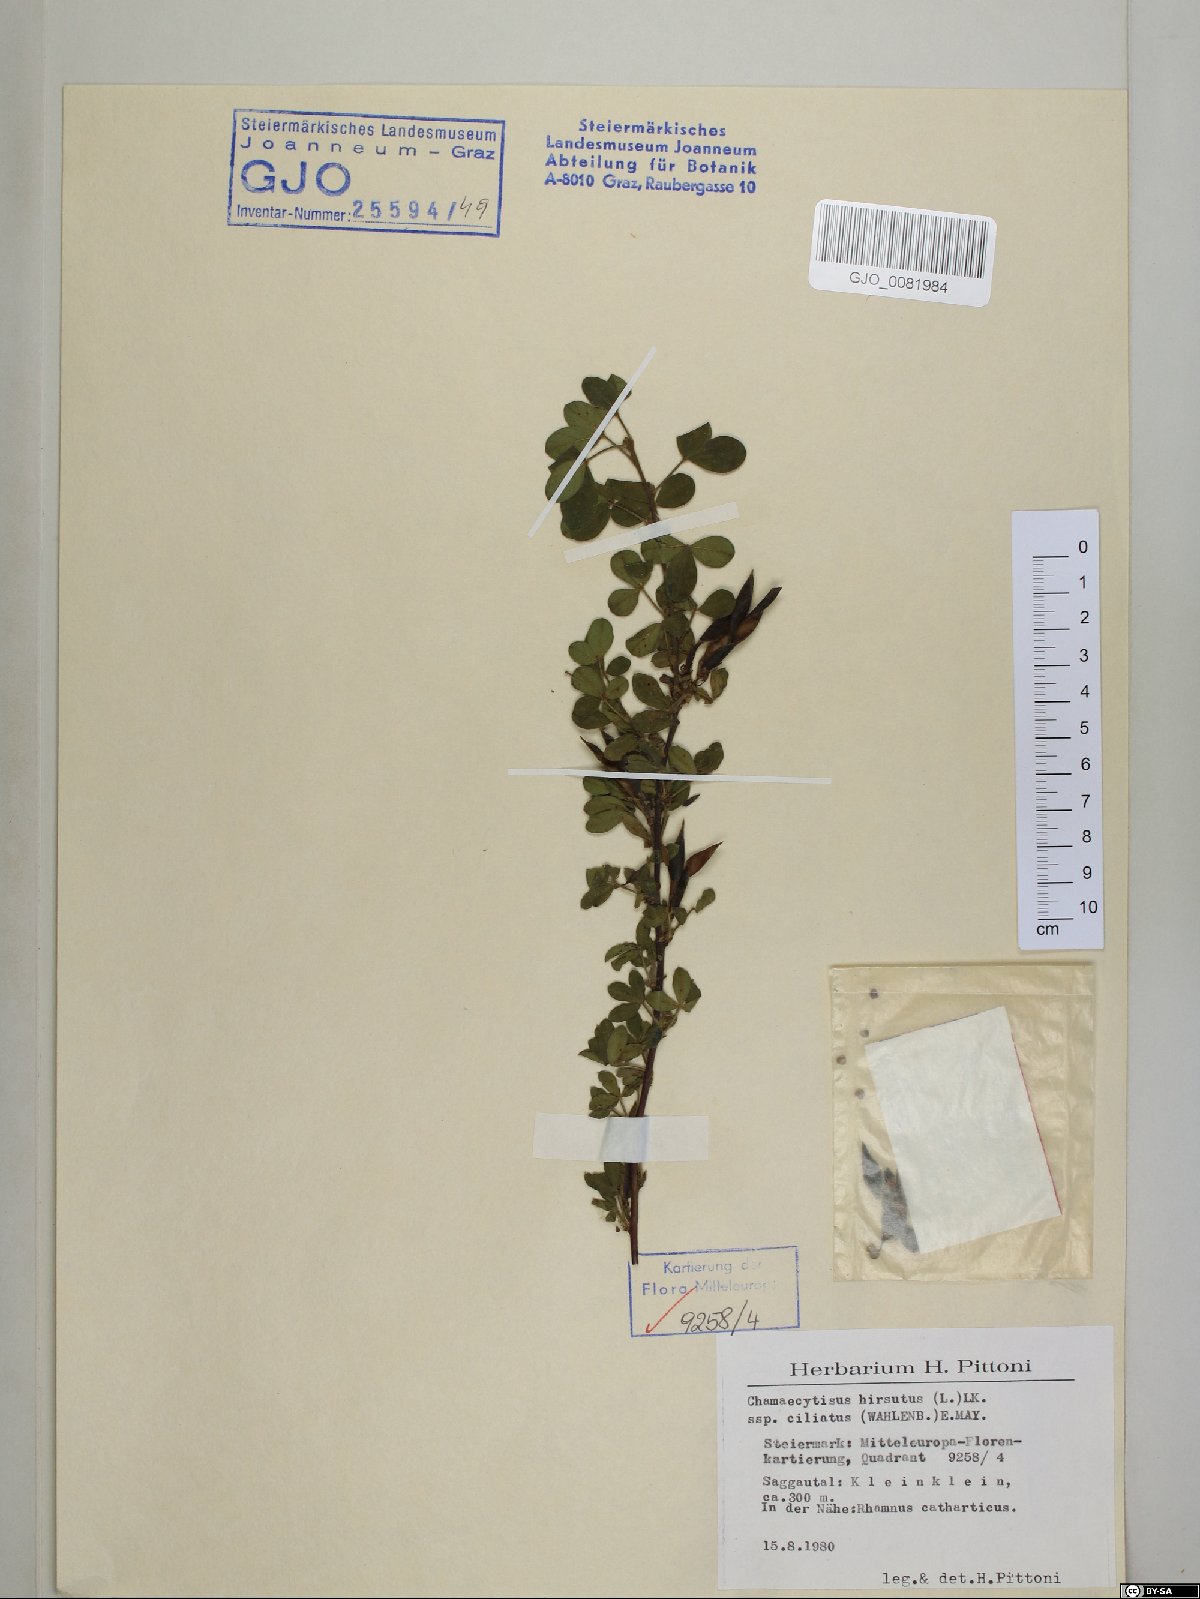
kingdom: Plantae
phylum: Tracheophyta
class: Magnoliopsida
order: Fabales
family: Fabaceae
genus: Chamaecytisus
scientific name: Chamaecytisus hirsutus
